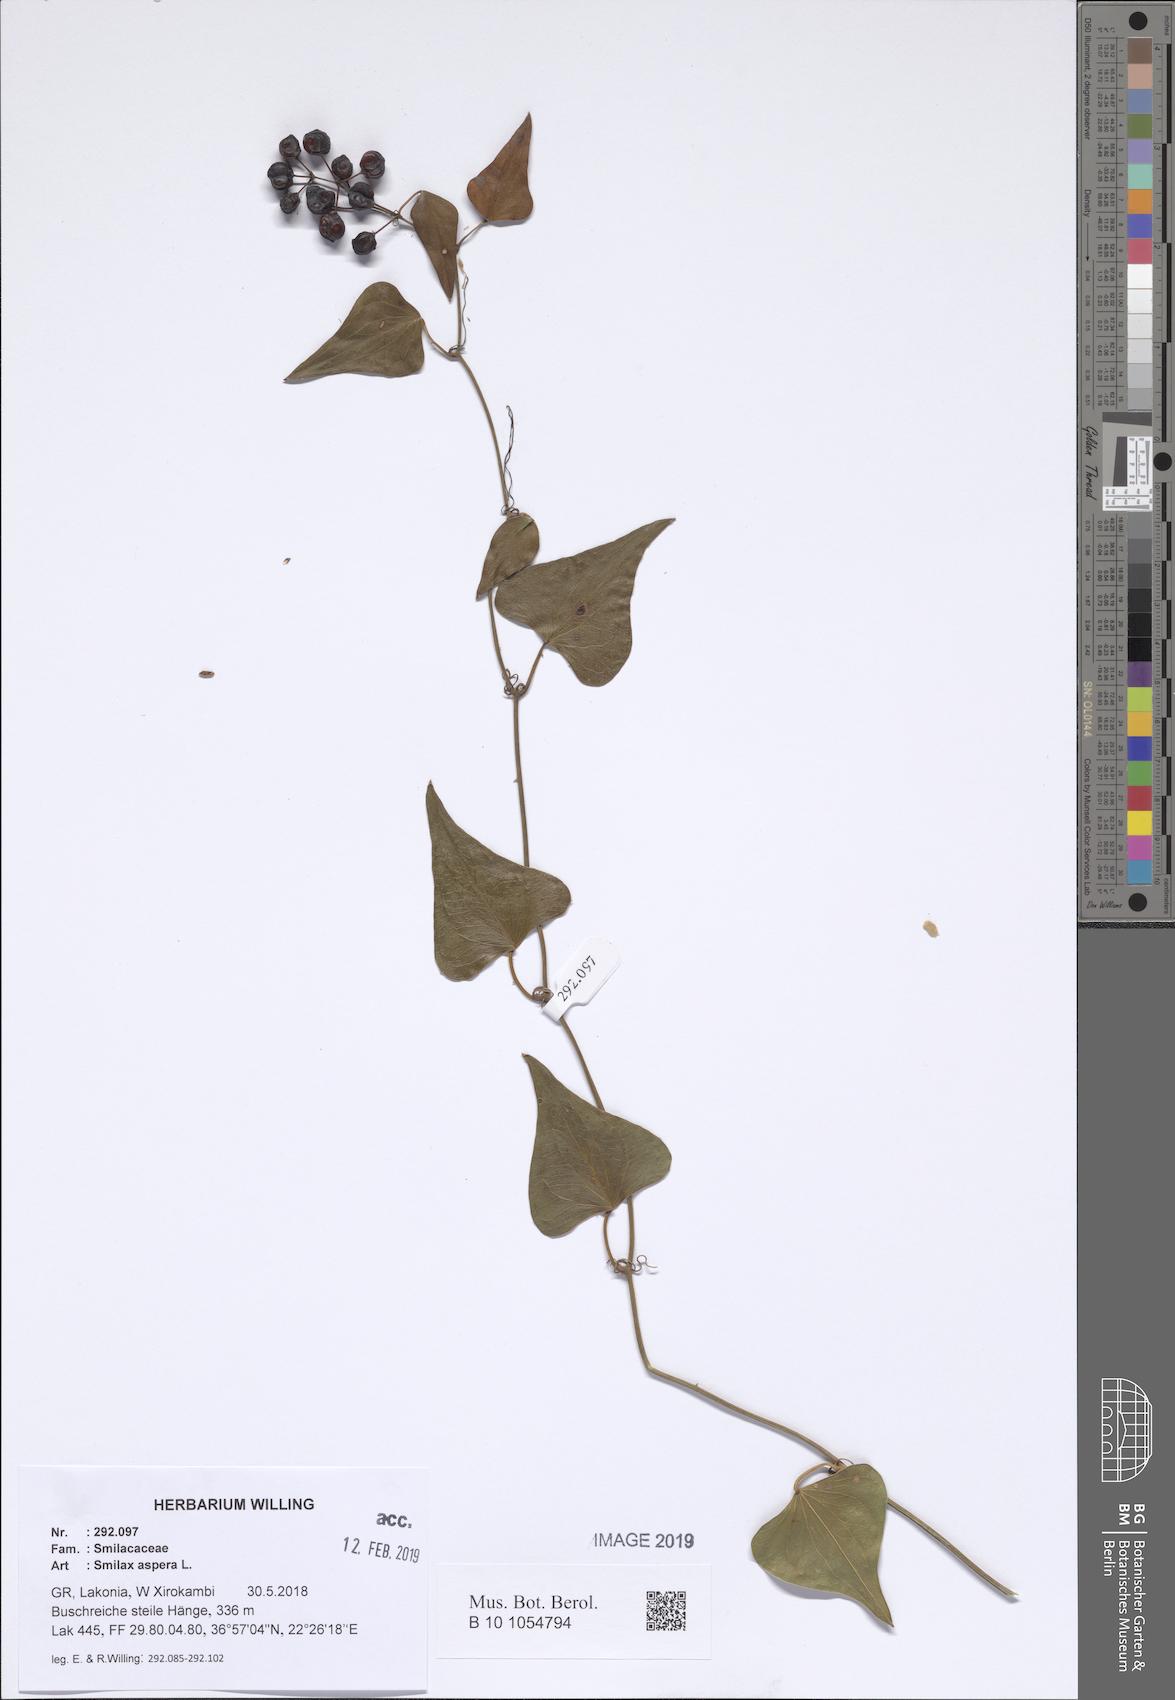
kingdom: Plantae
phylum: Tracheophyta
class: Liliopsida
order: Liliales
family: Smilacaceae
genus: Smilax
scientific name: Smilax aspera
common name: Common smilax
